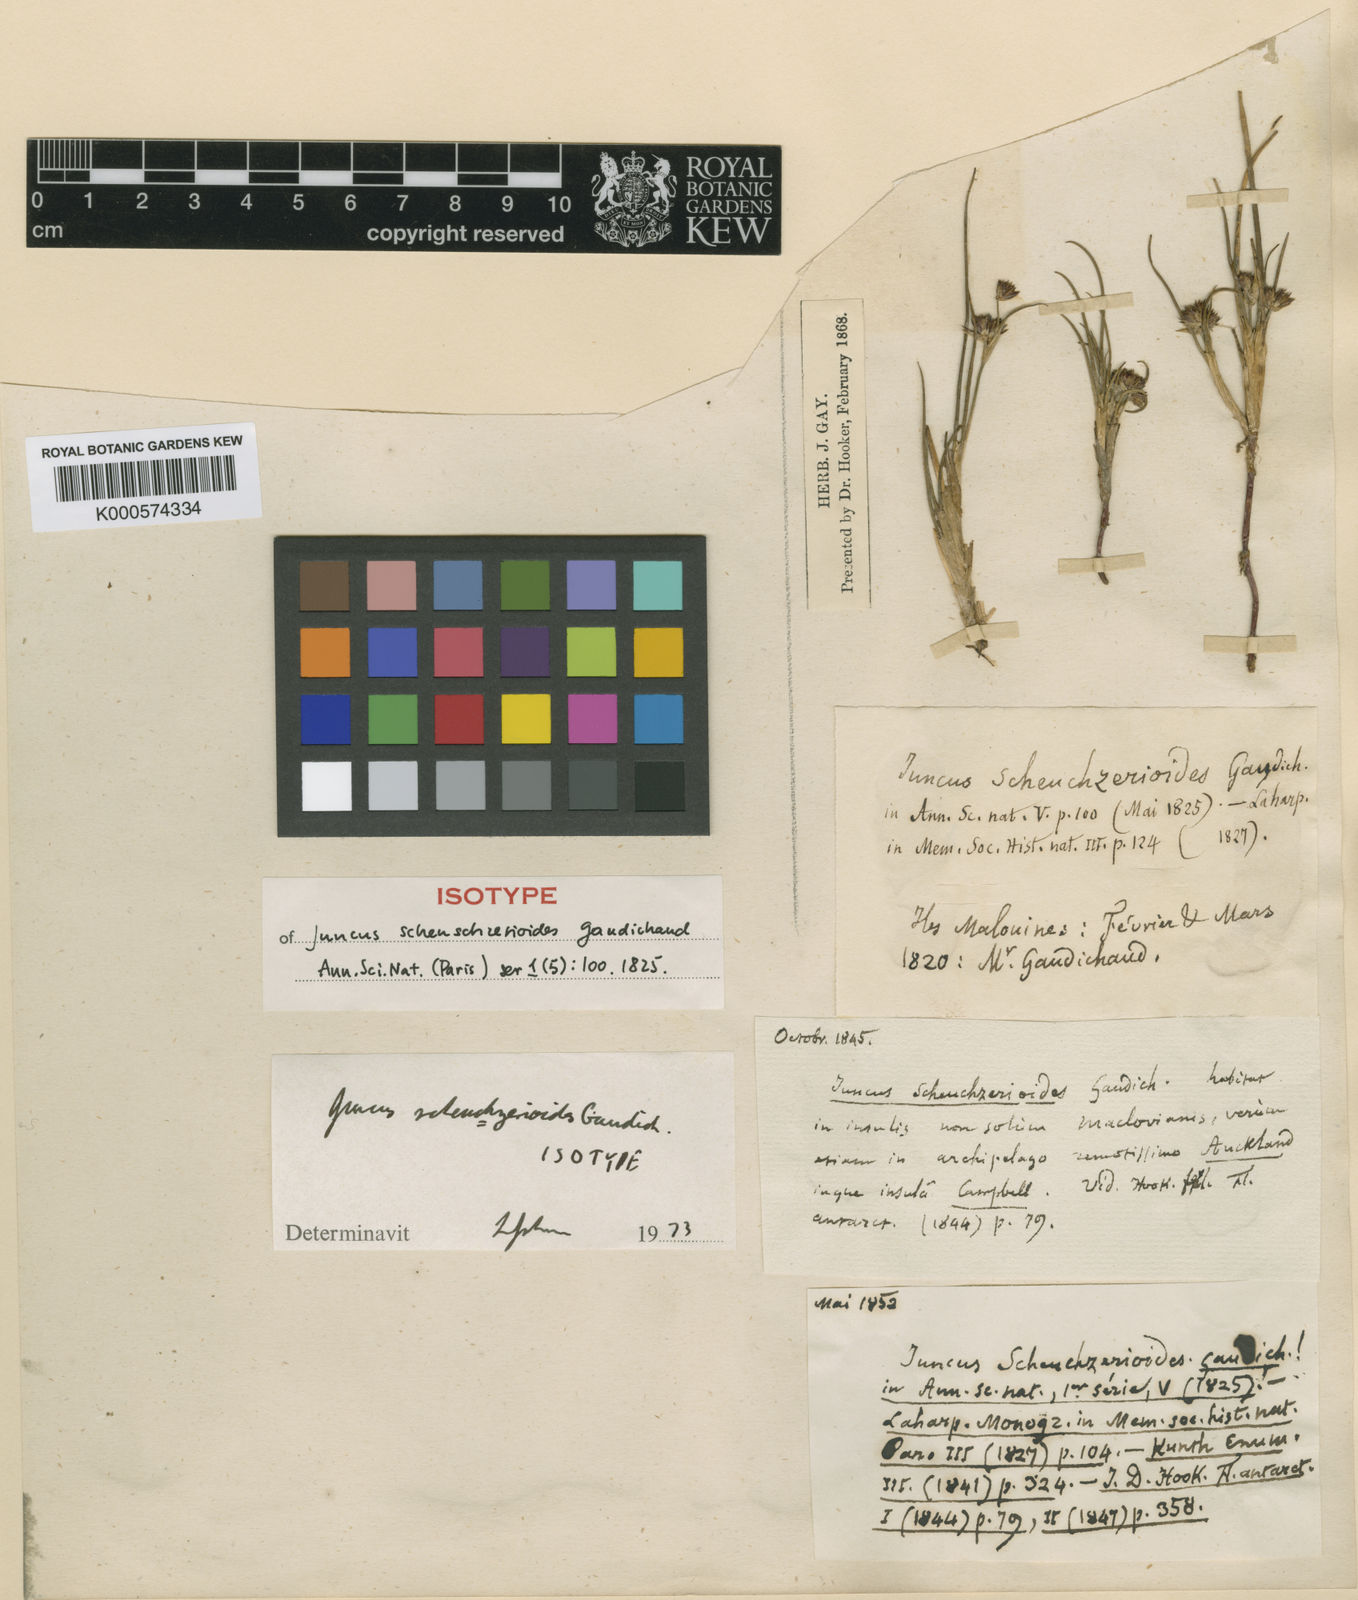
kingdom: Plantae
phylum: Tracheophyta
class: Liliopsida
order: Poales
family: Juncaceae
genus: Juncus
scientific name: Juncus scheuchzerioides
